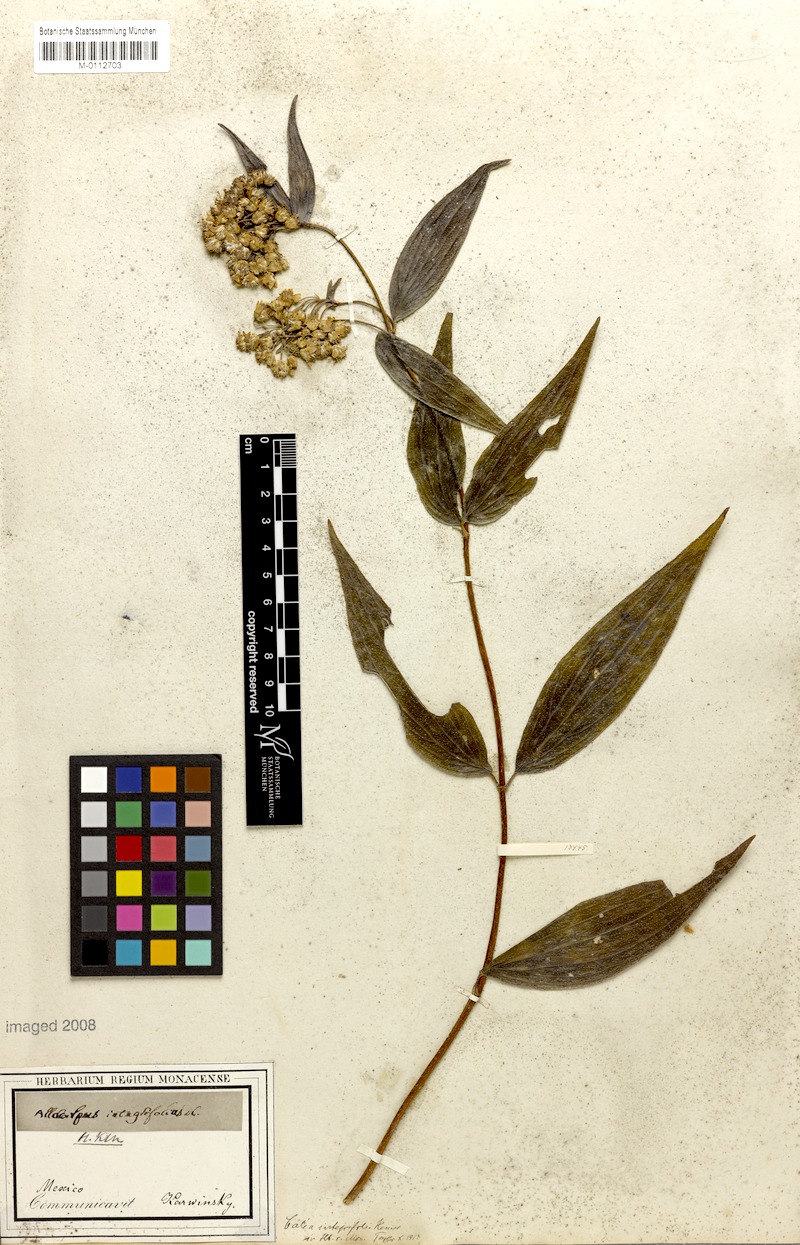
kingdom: Plantae
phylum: Tracheophyta
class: Magnoliopsida
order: Asterales
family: Asteraceae
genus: Alloispermum
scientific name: Alloispermum integrifolium
